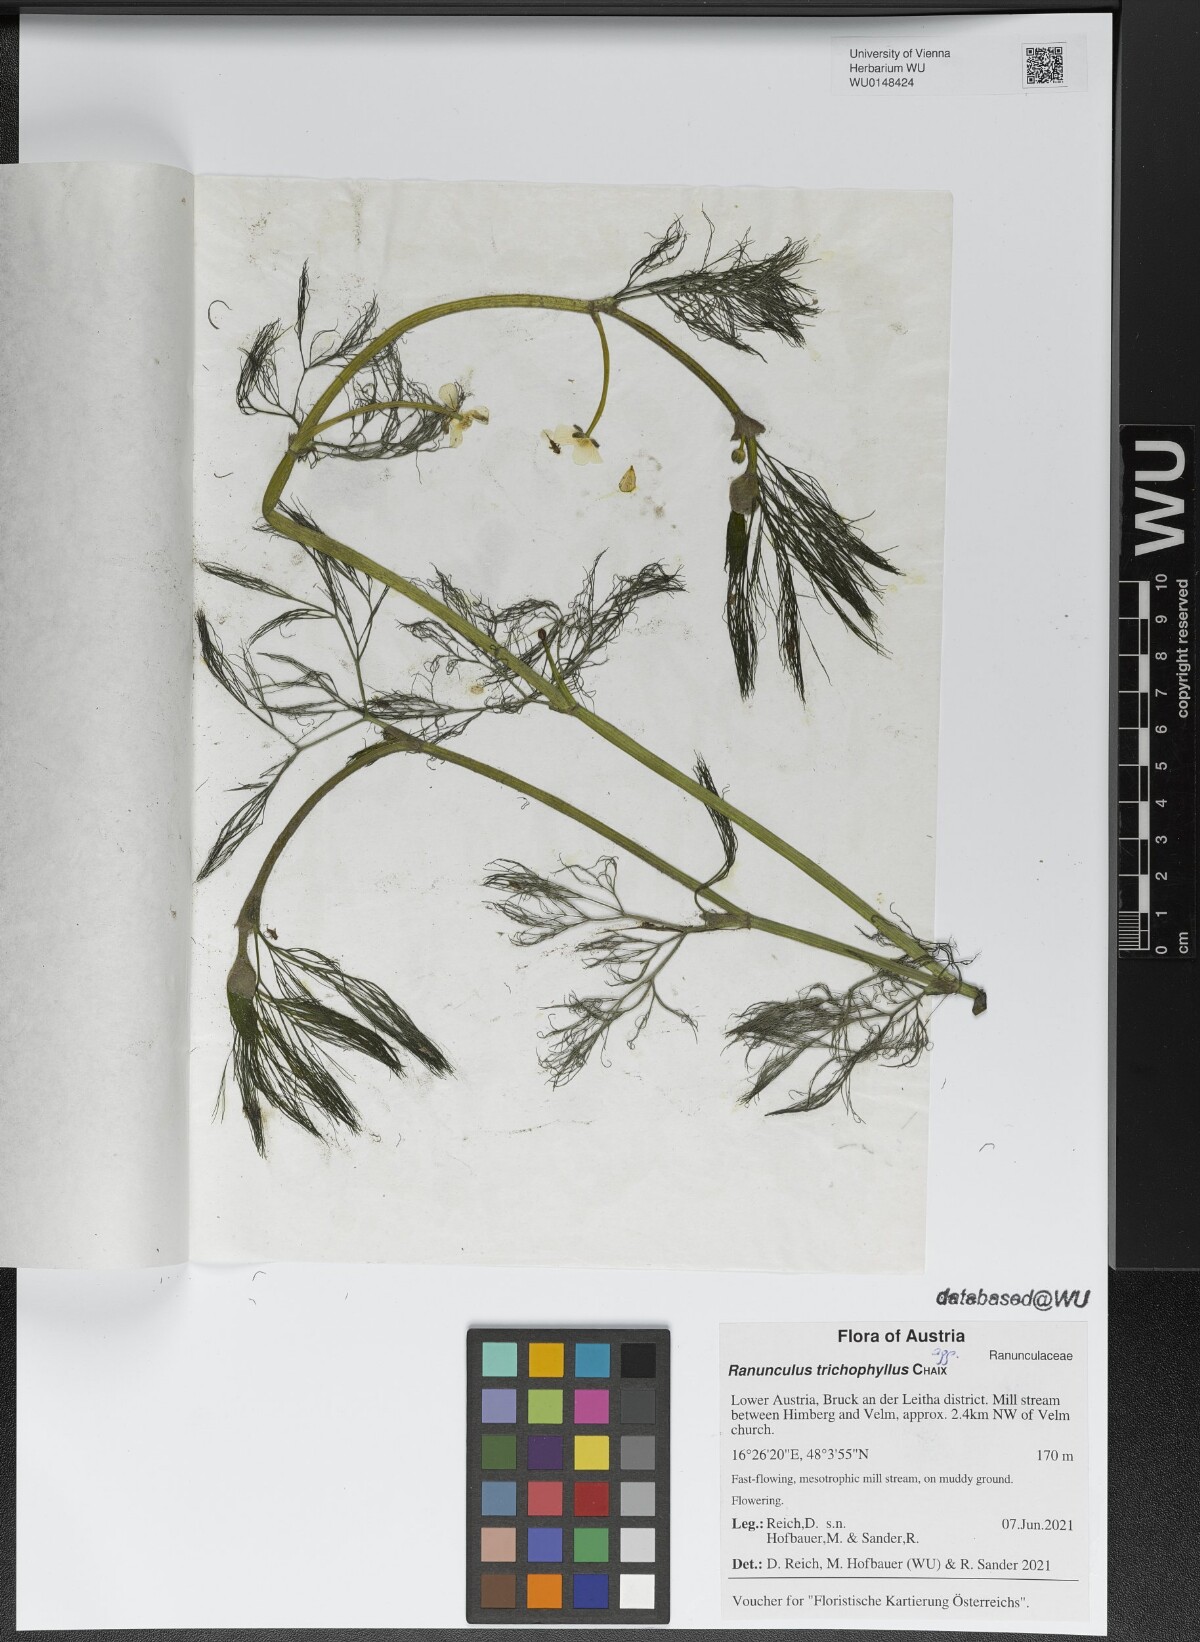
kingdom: Plantae
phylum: Tracheophyta
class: Magnoliopsida
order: Ranunculales
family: Ranunculaceae
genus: Ranunculus
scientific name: Ranunculus trichophyllus
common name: Thread-leaved water-crowfoot
